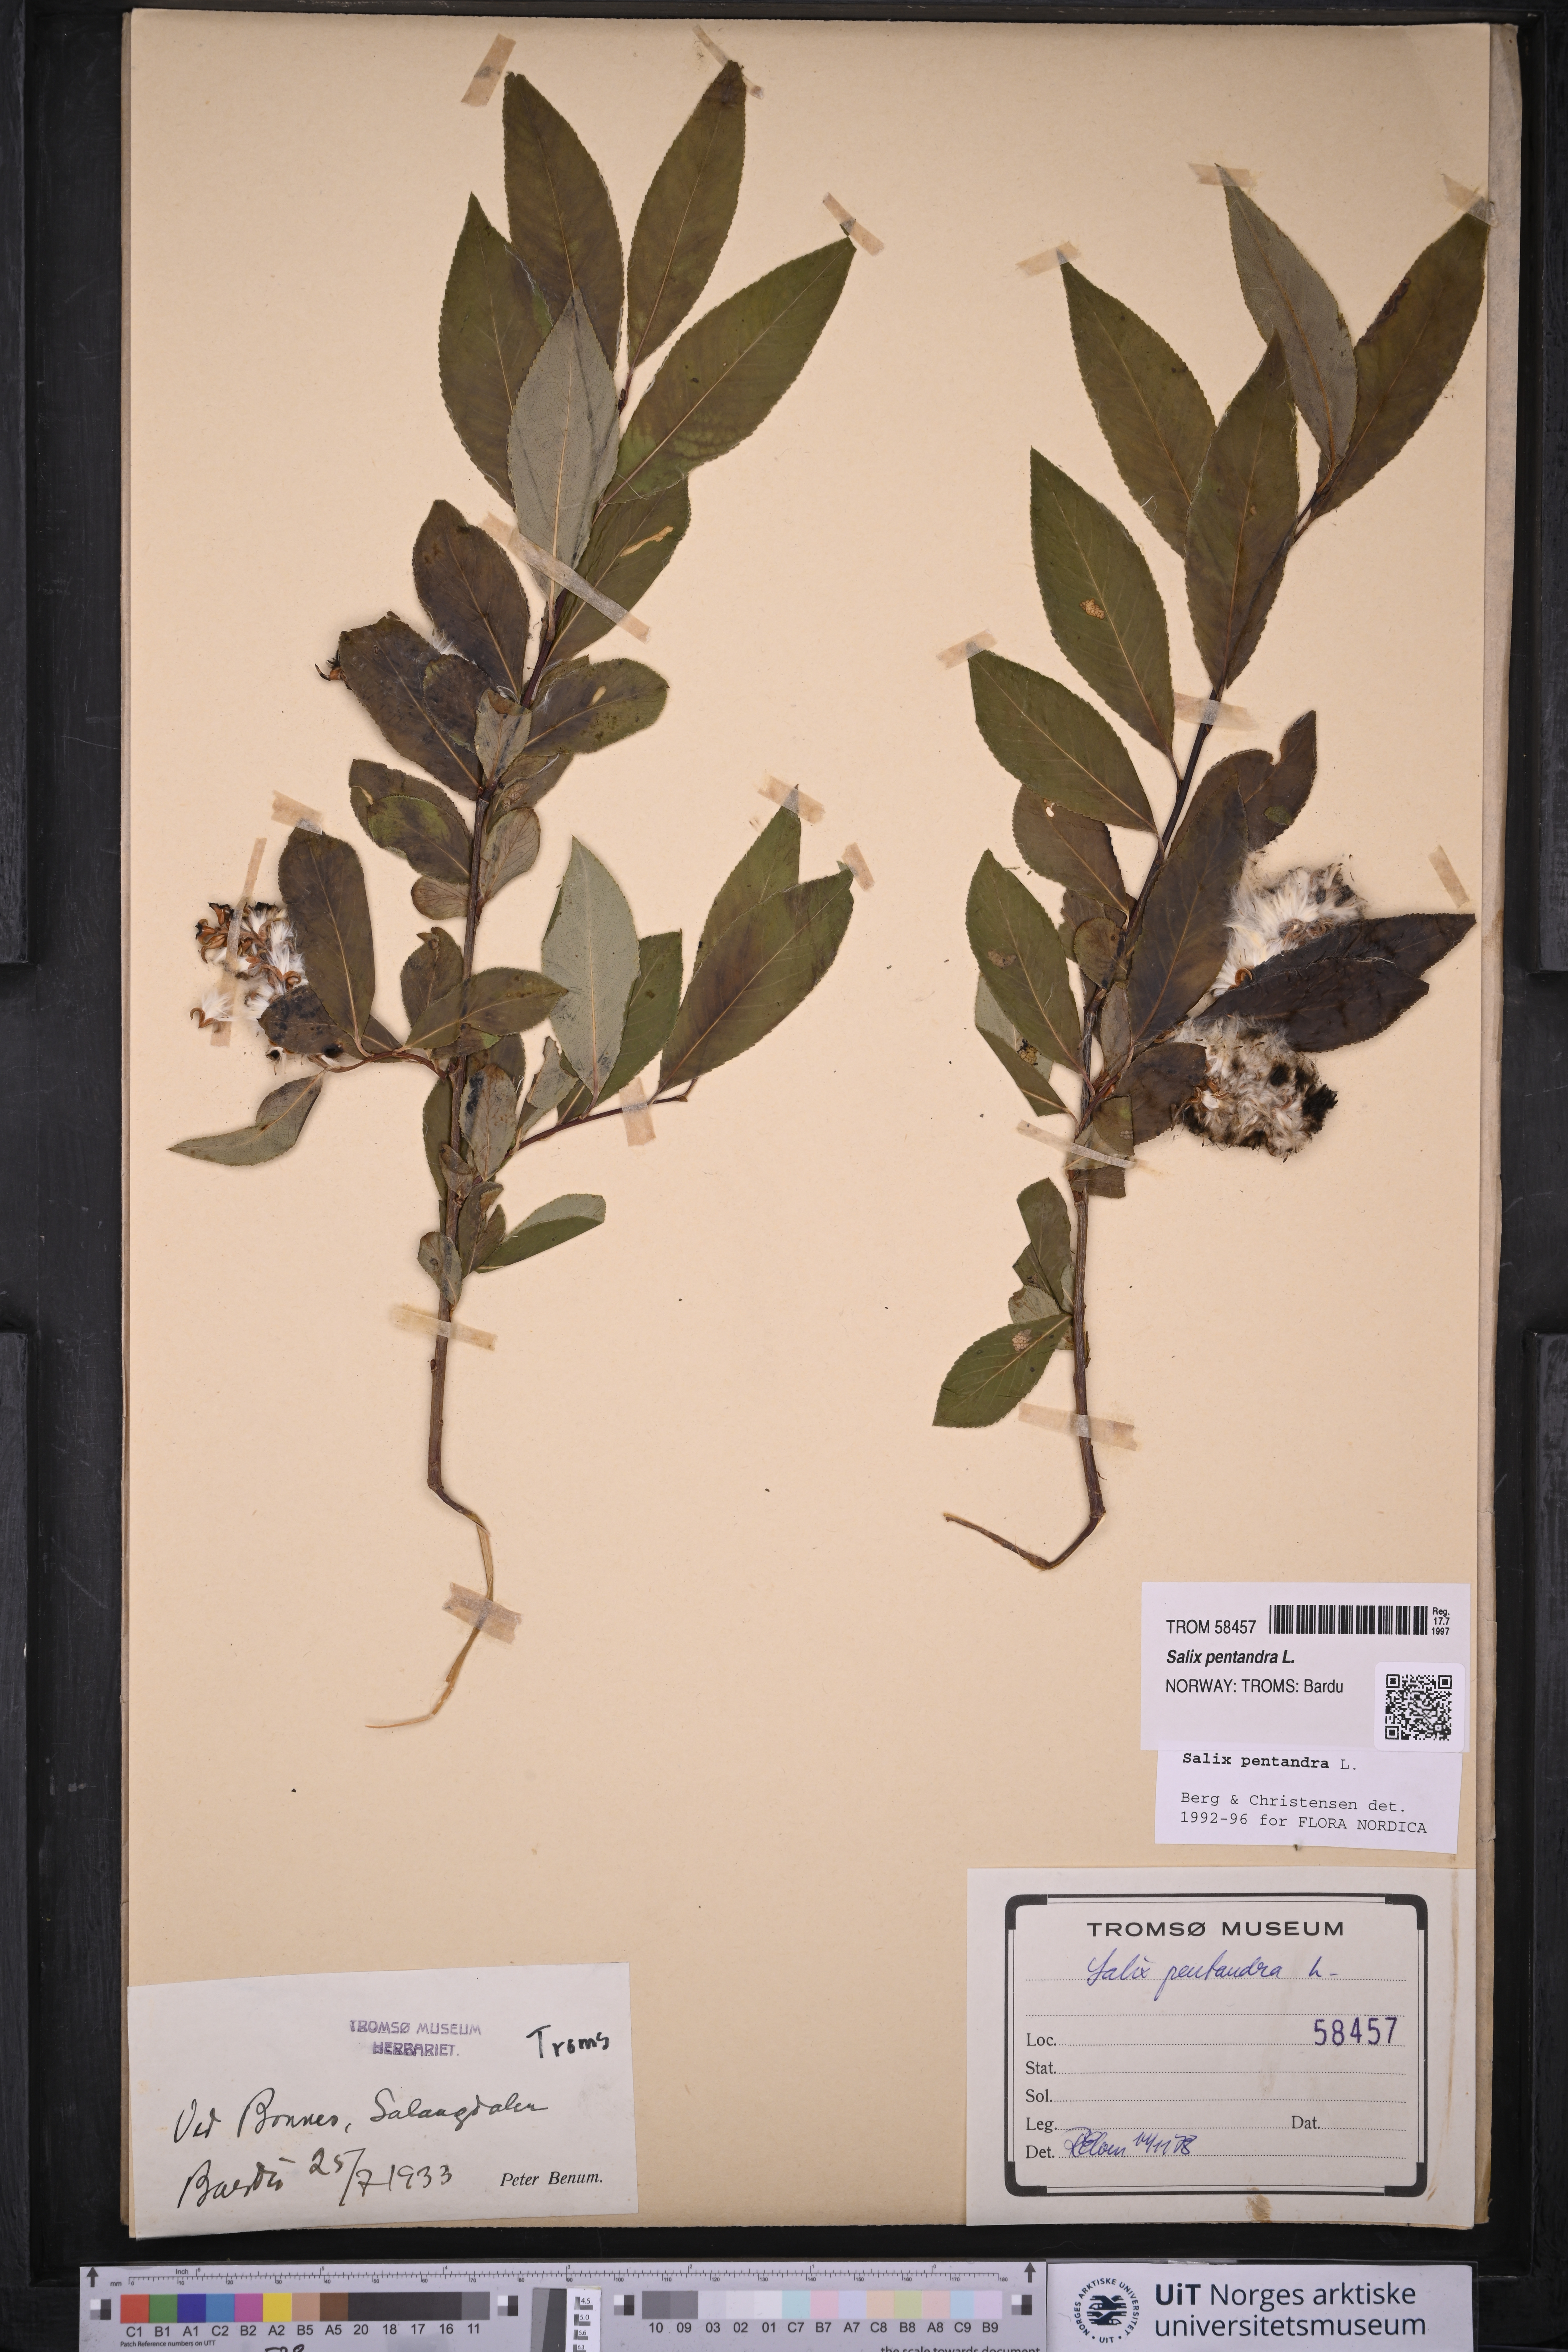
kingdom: Plantae
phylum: Tracheophyta
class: Magnoliopsida
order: Malpighiales
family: Salicaceae
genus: Salix
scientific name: Salix pentandra
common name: Bay willow
